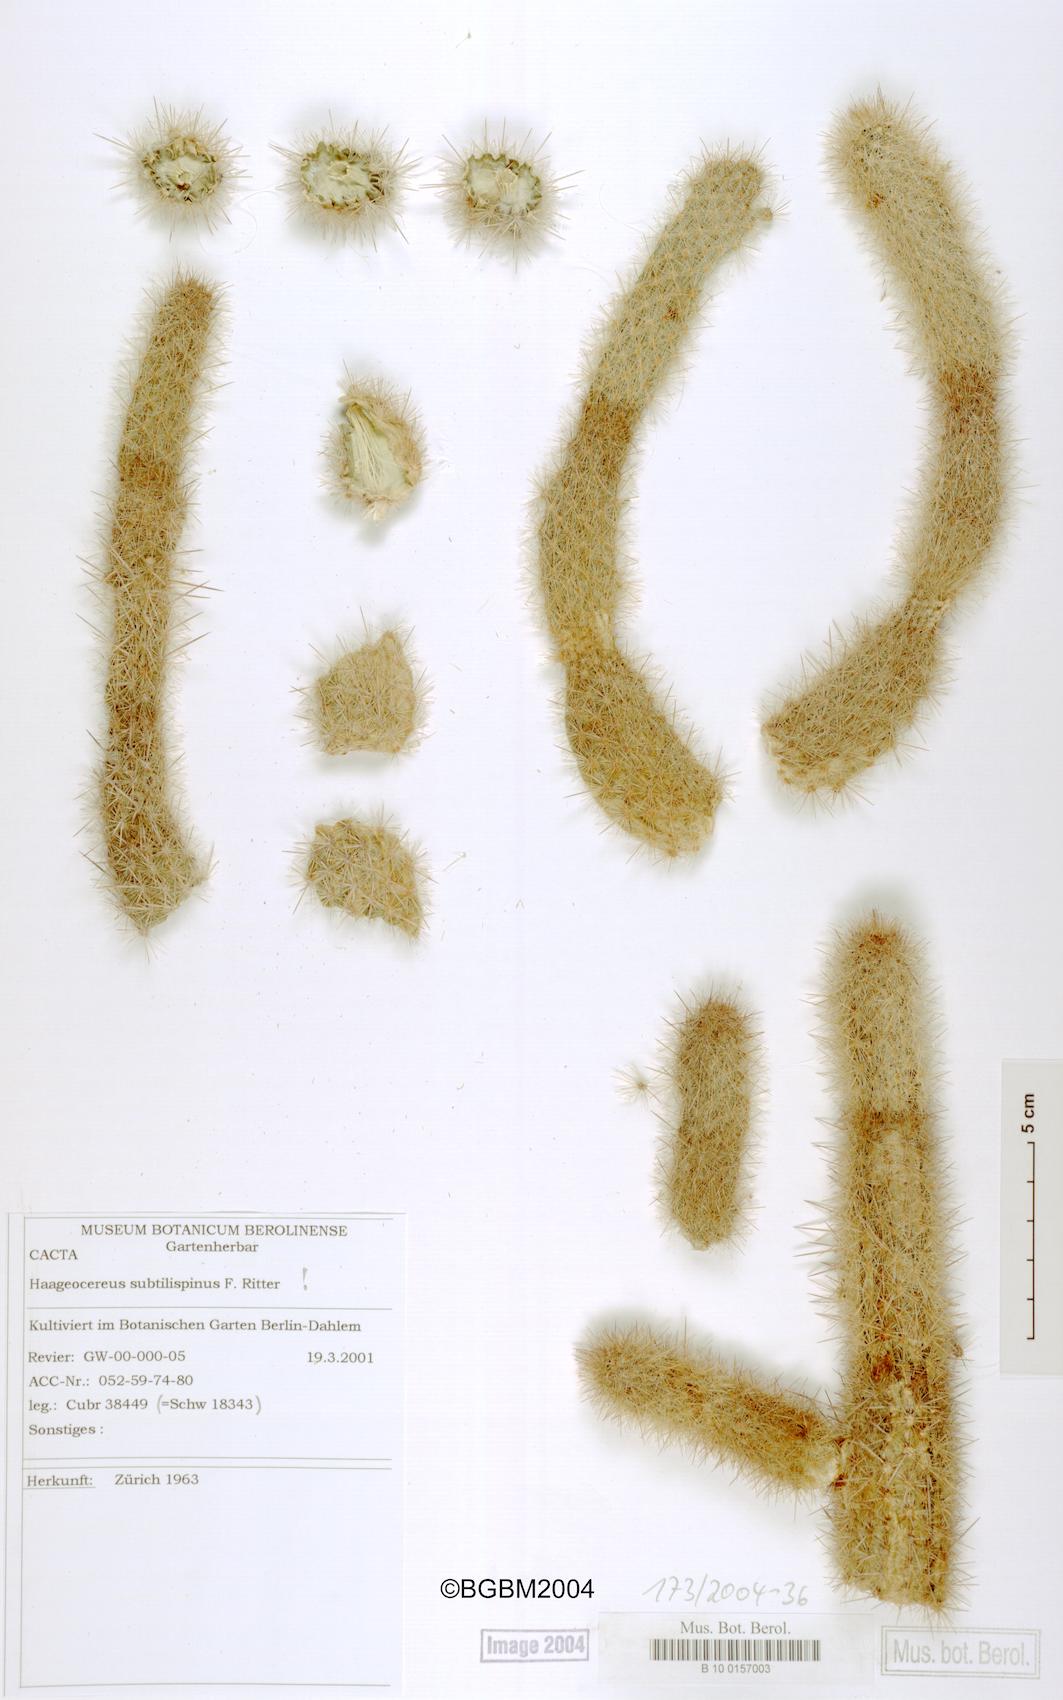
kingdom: Plantae
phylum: Tracheophyta
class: Magnoliopsida
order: Caryophyllales
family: Cactaceae
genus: Haageocereus
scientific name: Haageocereus decumbens
